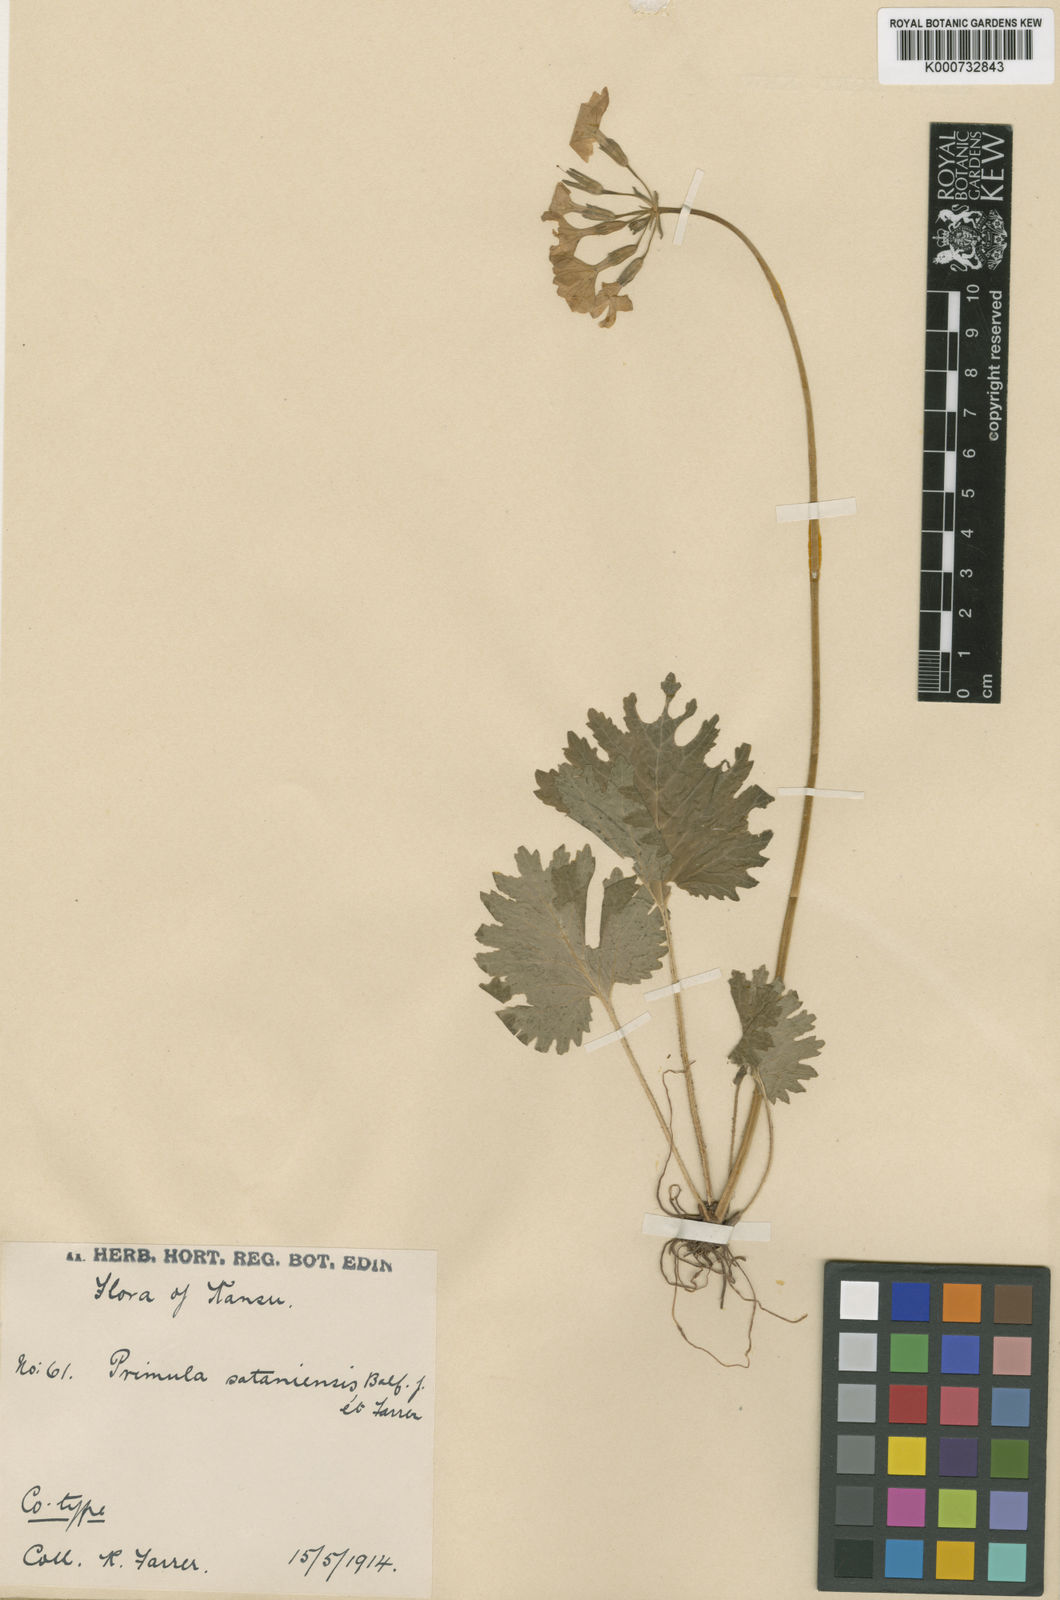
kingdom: Plantae
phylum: Tracheophyta
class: Magnoliopsida
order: Ericales
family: Primulaceae
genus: Primula
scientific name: Primula polyneura
